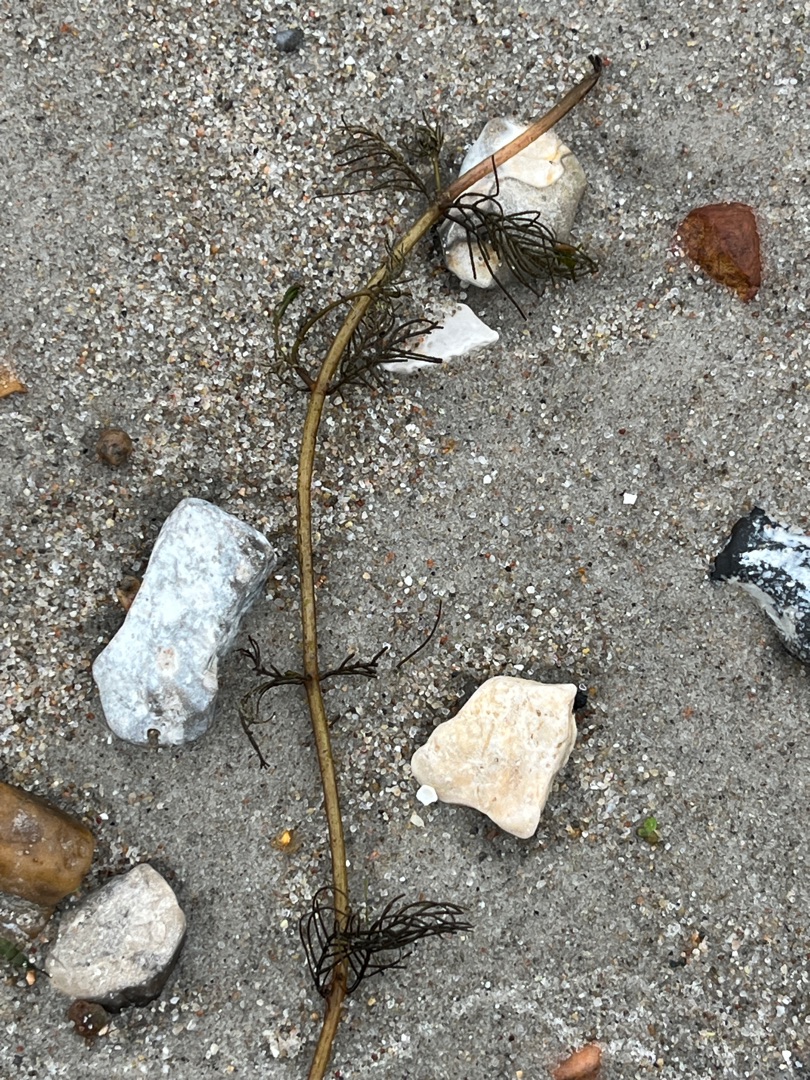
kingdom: Plantae
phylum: Tracheophyta
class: Magnoliopsida
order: Saxifragales
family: Haloragaceae
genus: Myriophyllum
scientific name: Myriophyllum spicatum
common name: Aks-tusindblad
